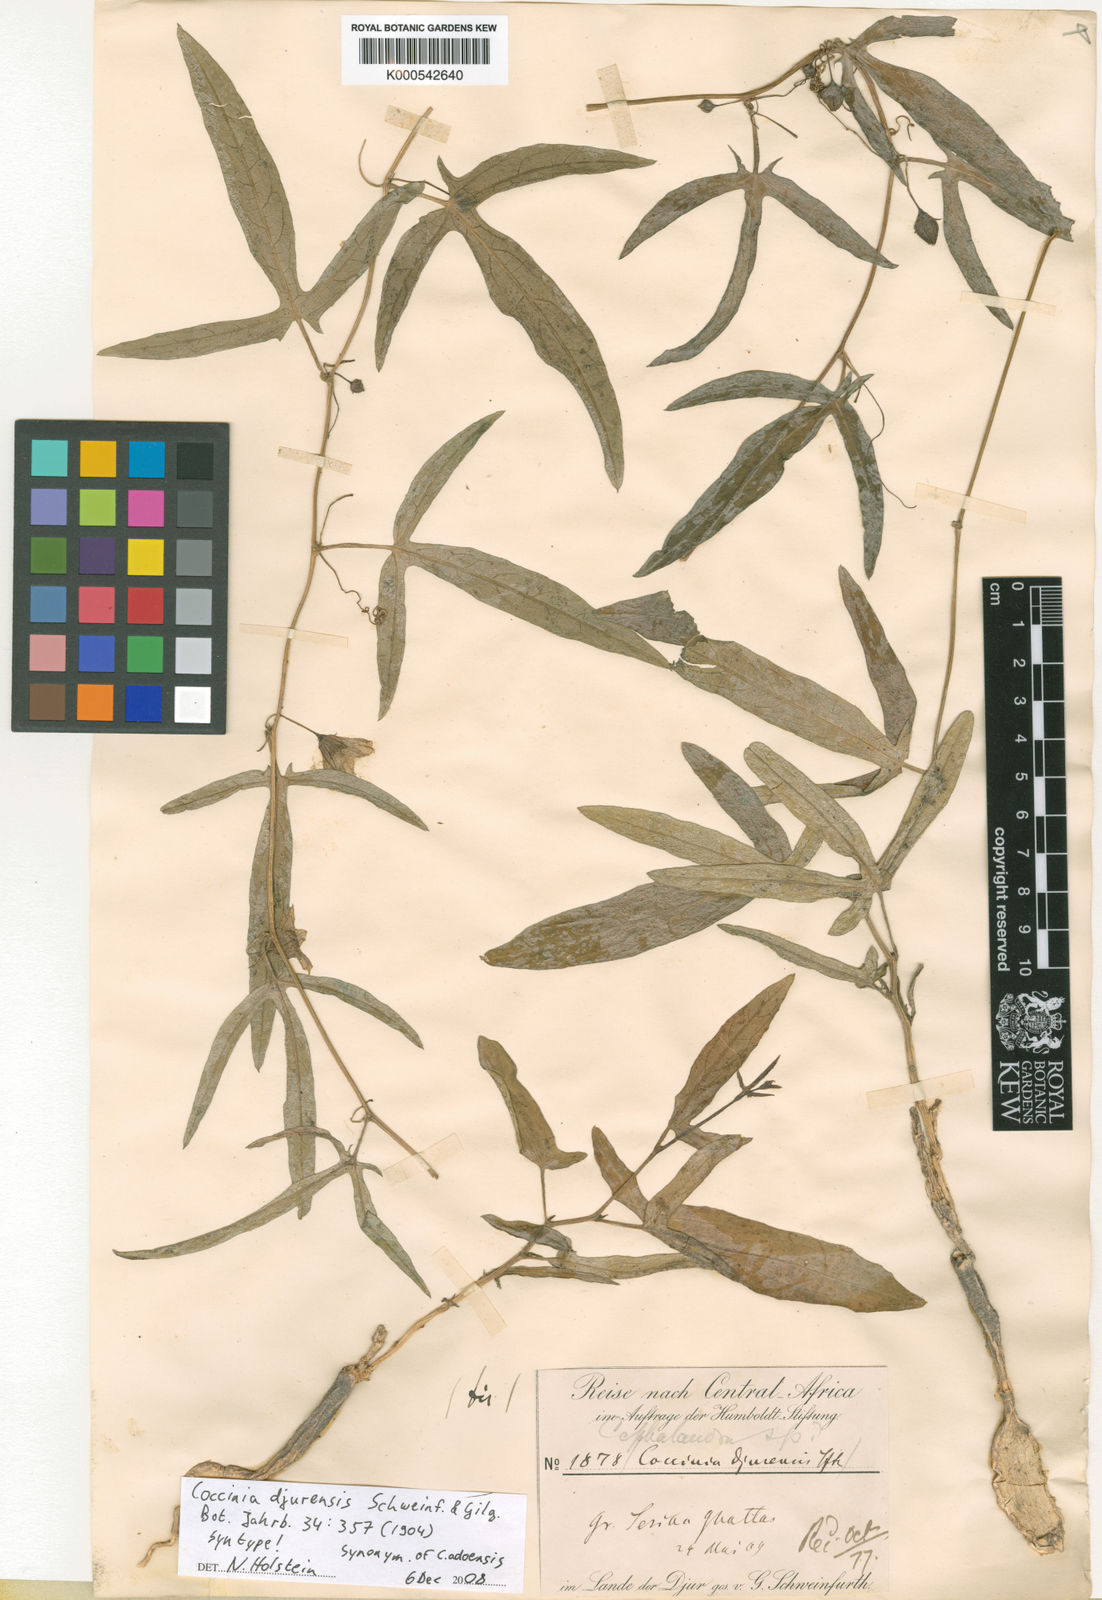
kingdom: Plantae
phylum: Tracheophyta
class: Magnoliopsida
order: Cucurbitales
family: Cucurbitaceae
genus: Coccinia
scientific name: Coccinia adoensis
